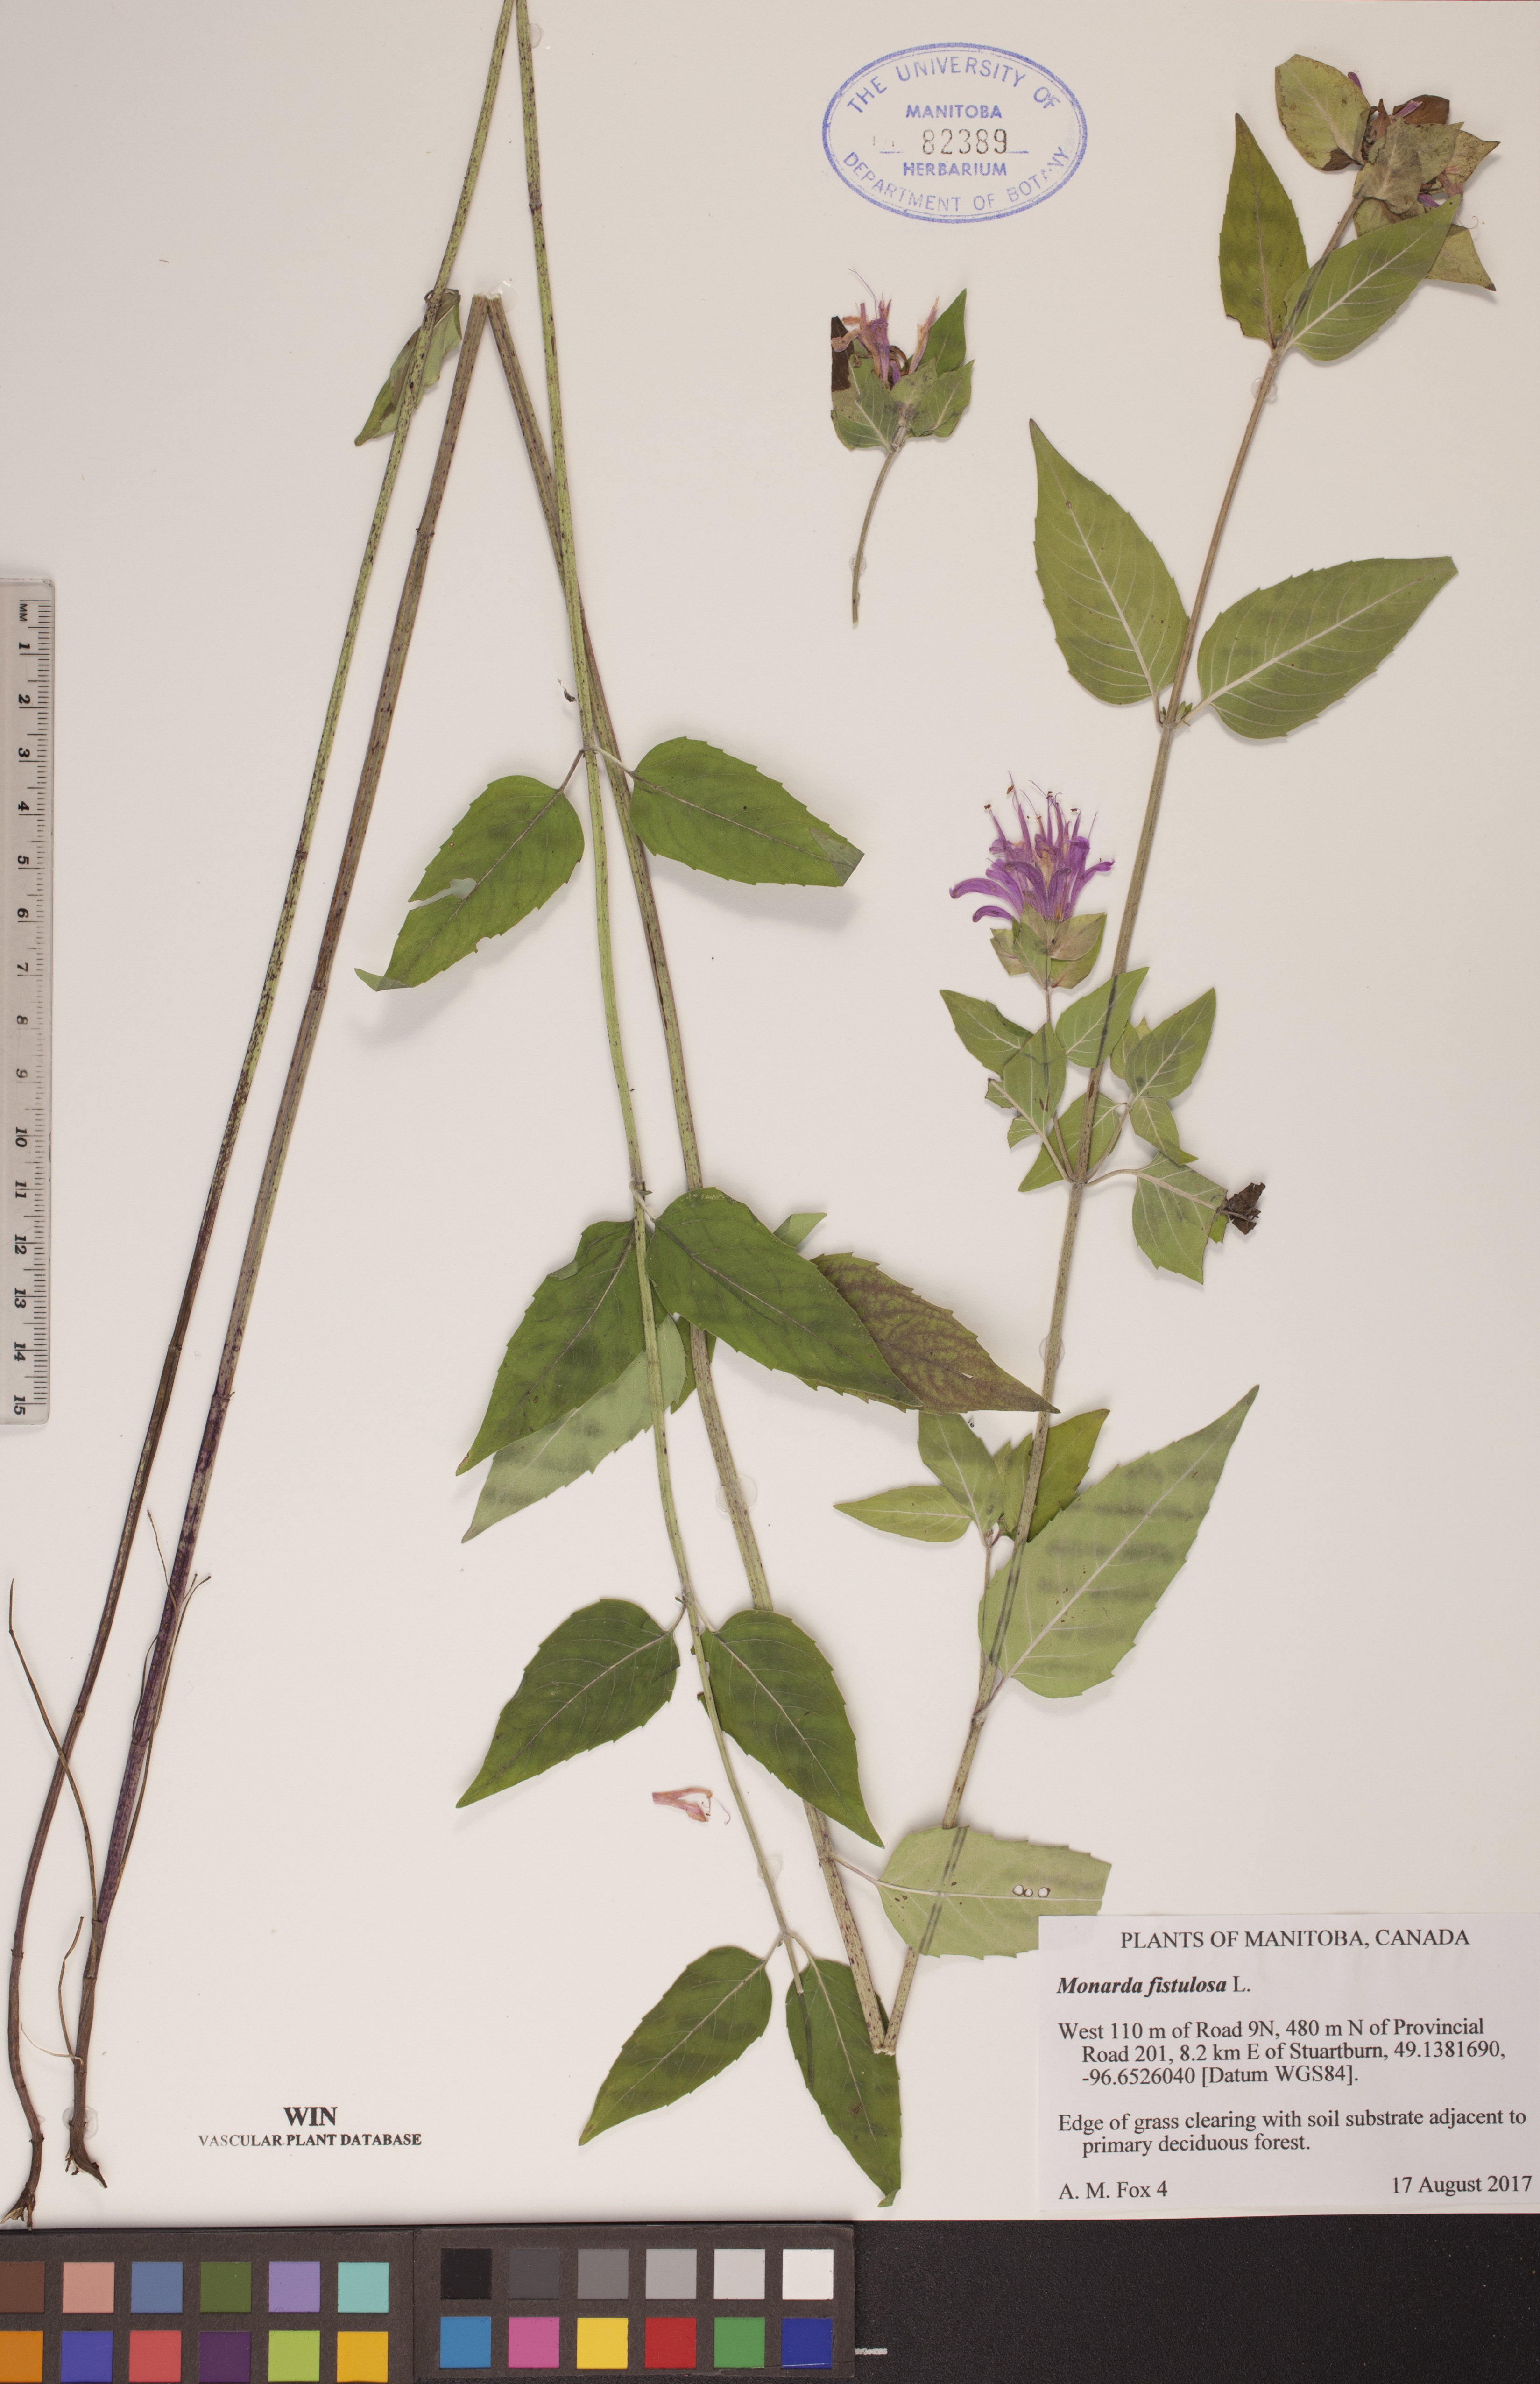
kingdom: Plantae
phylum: Tracheophyta
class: Magnoliopsida
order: Lamiales
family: Lamiaceae
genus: Monarda
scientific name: Monarda fistulosa
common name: Purple beebalm
